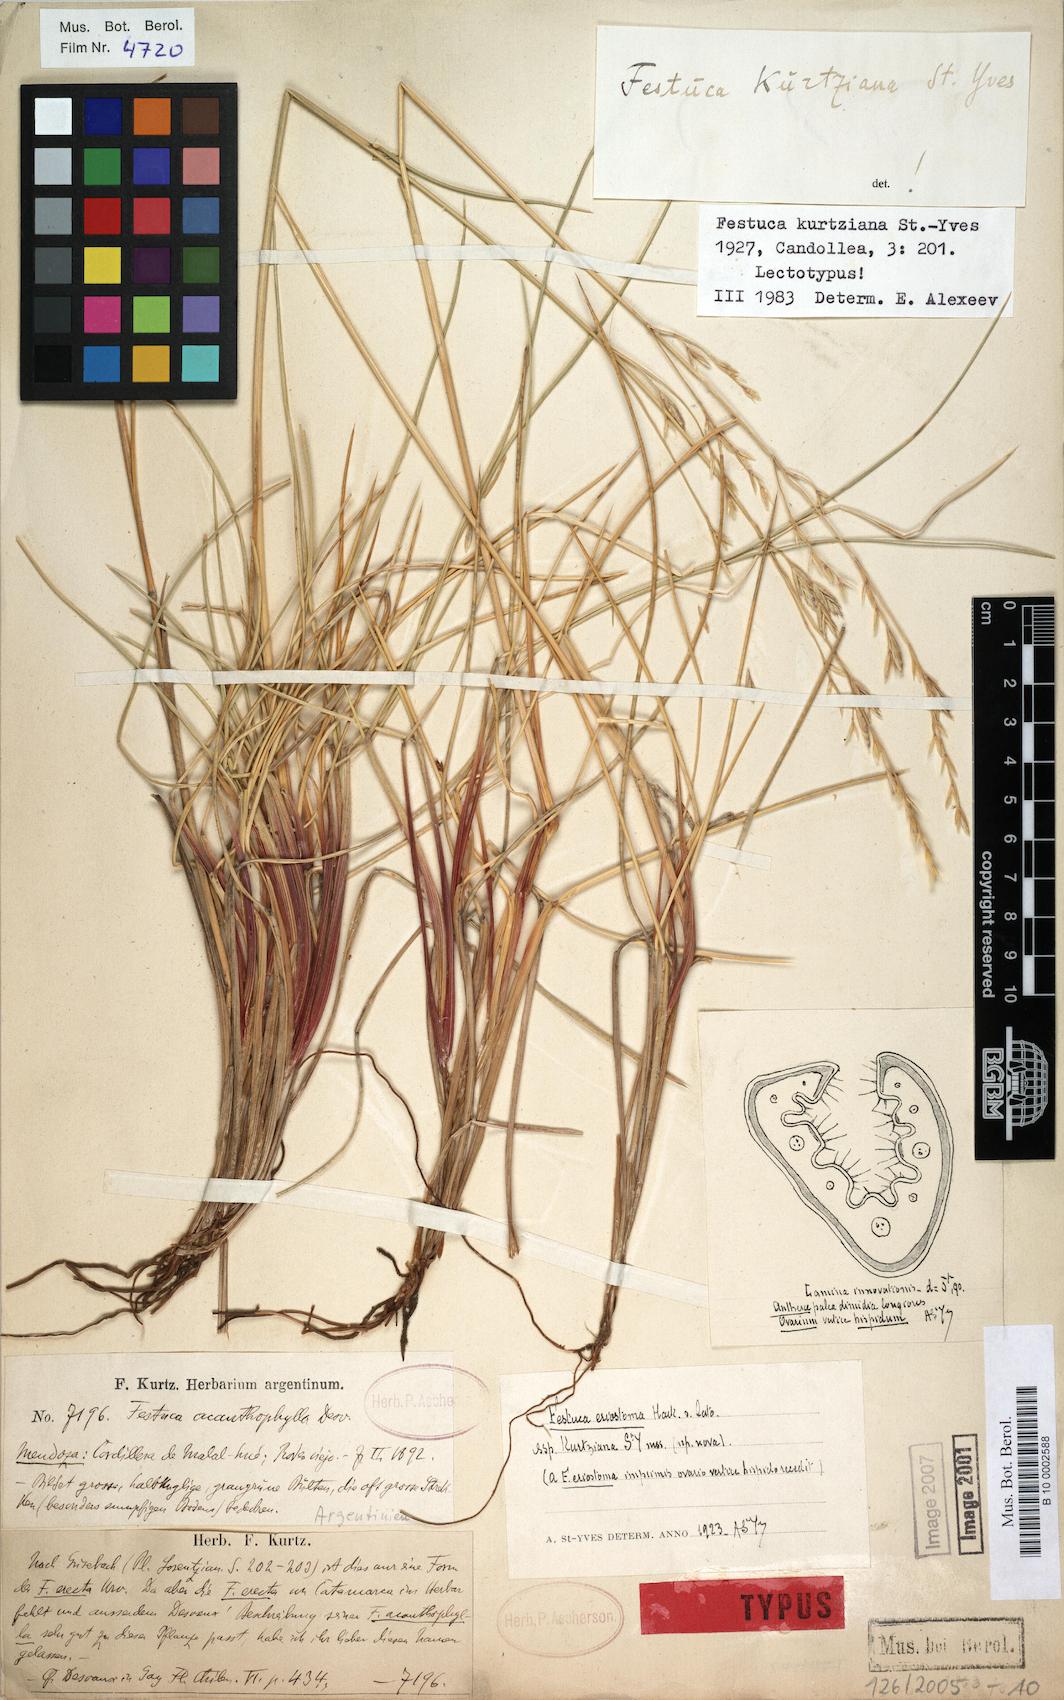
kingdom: Plantae
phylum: Tracheophyta
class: Liliopsida
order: Poales
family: Poaceae
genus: Festuca
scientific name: Festuca
